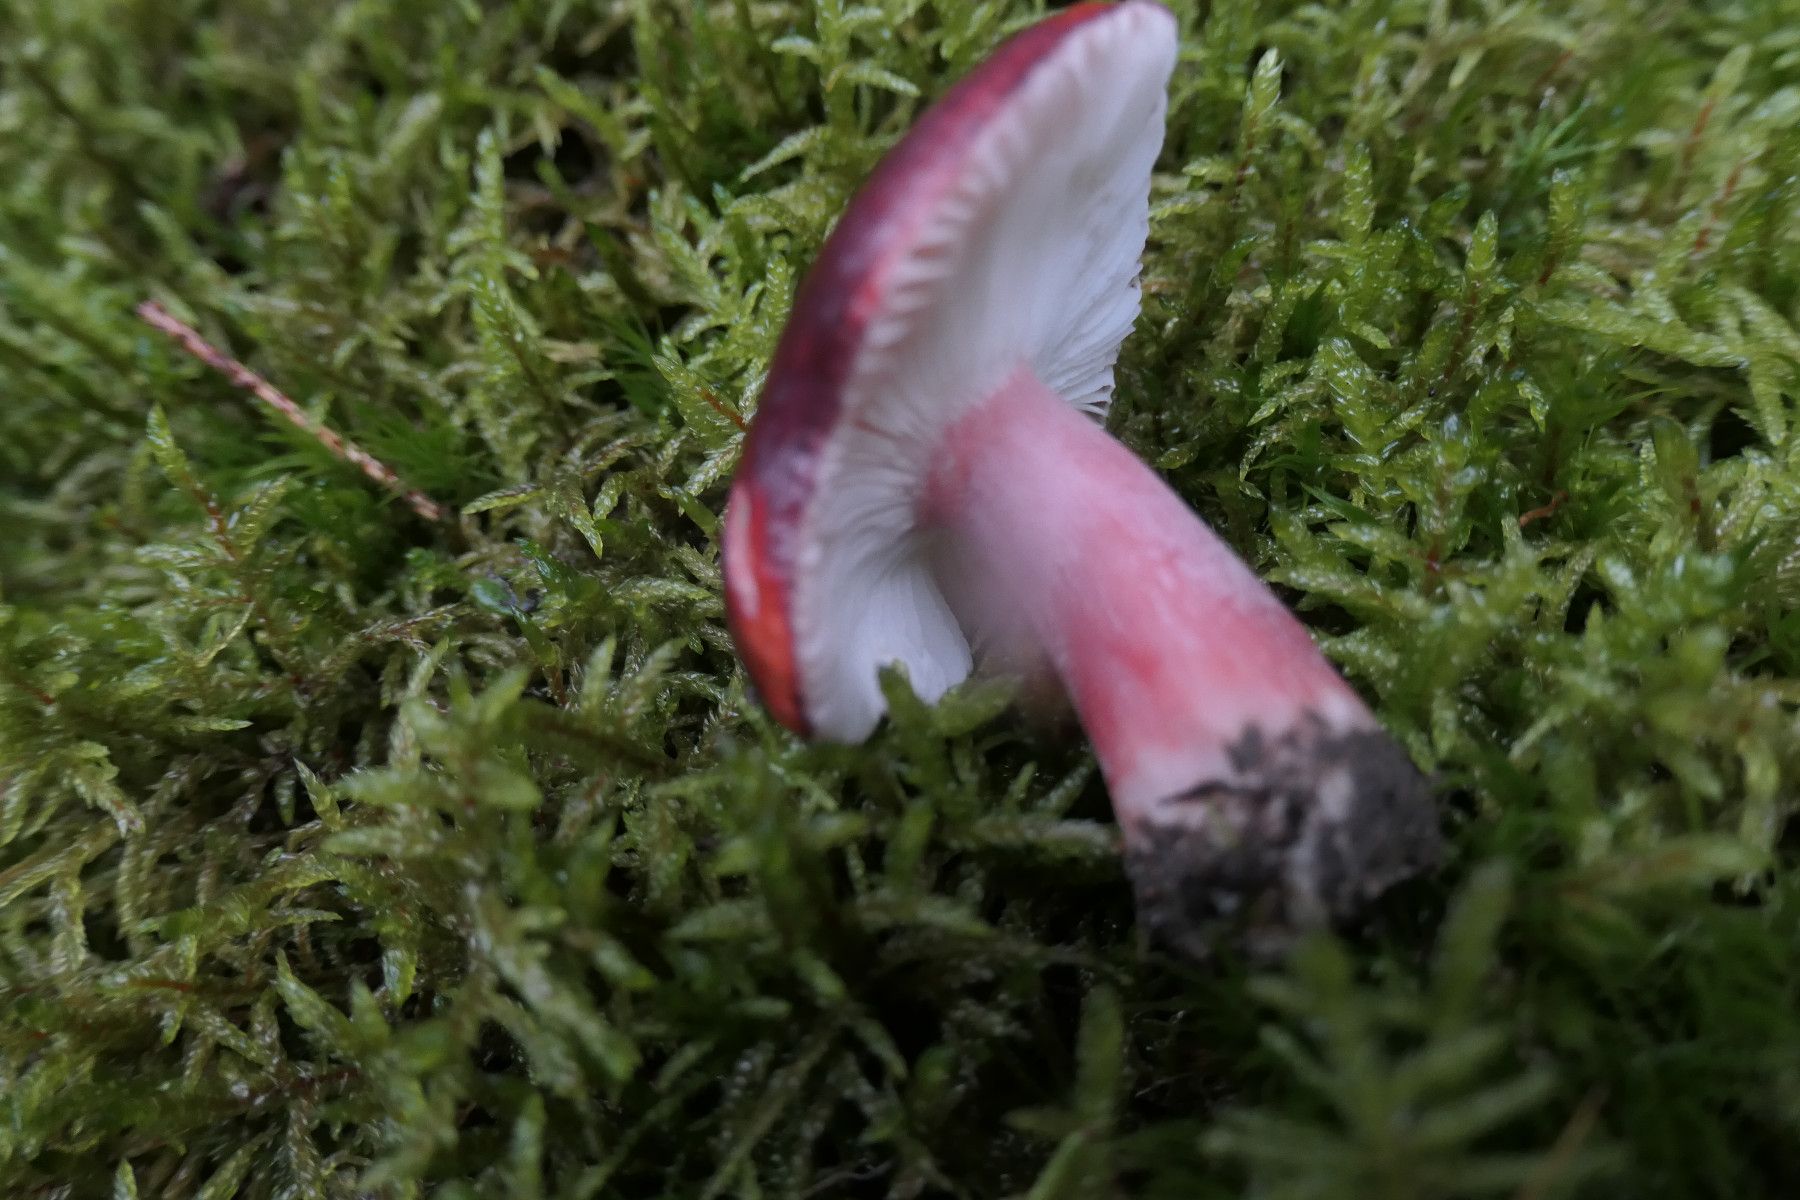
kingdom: Fungi
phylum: Basidiomycota
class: Agaricomycetes
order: Russulales
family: Russulaceae
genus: Russula
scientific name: Russula queletii
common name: Quélets skørhat
